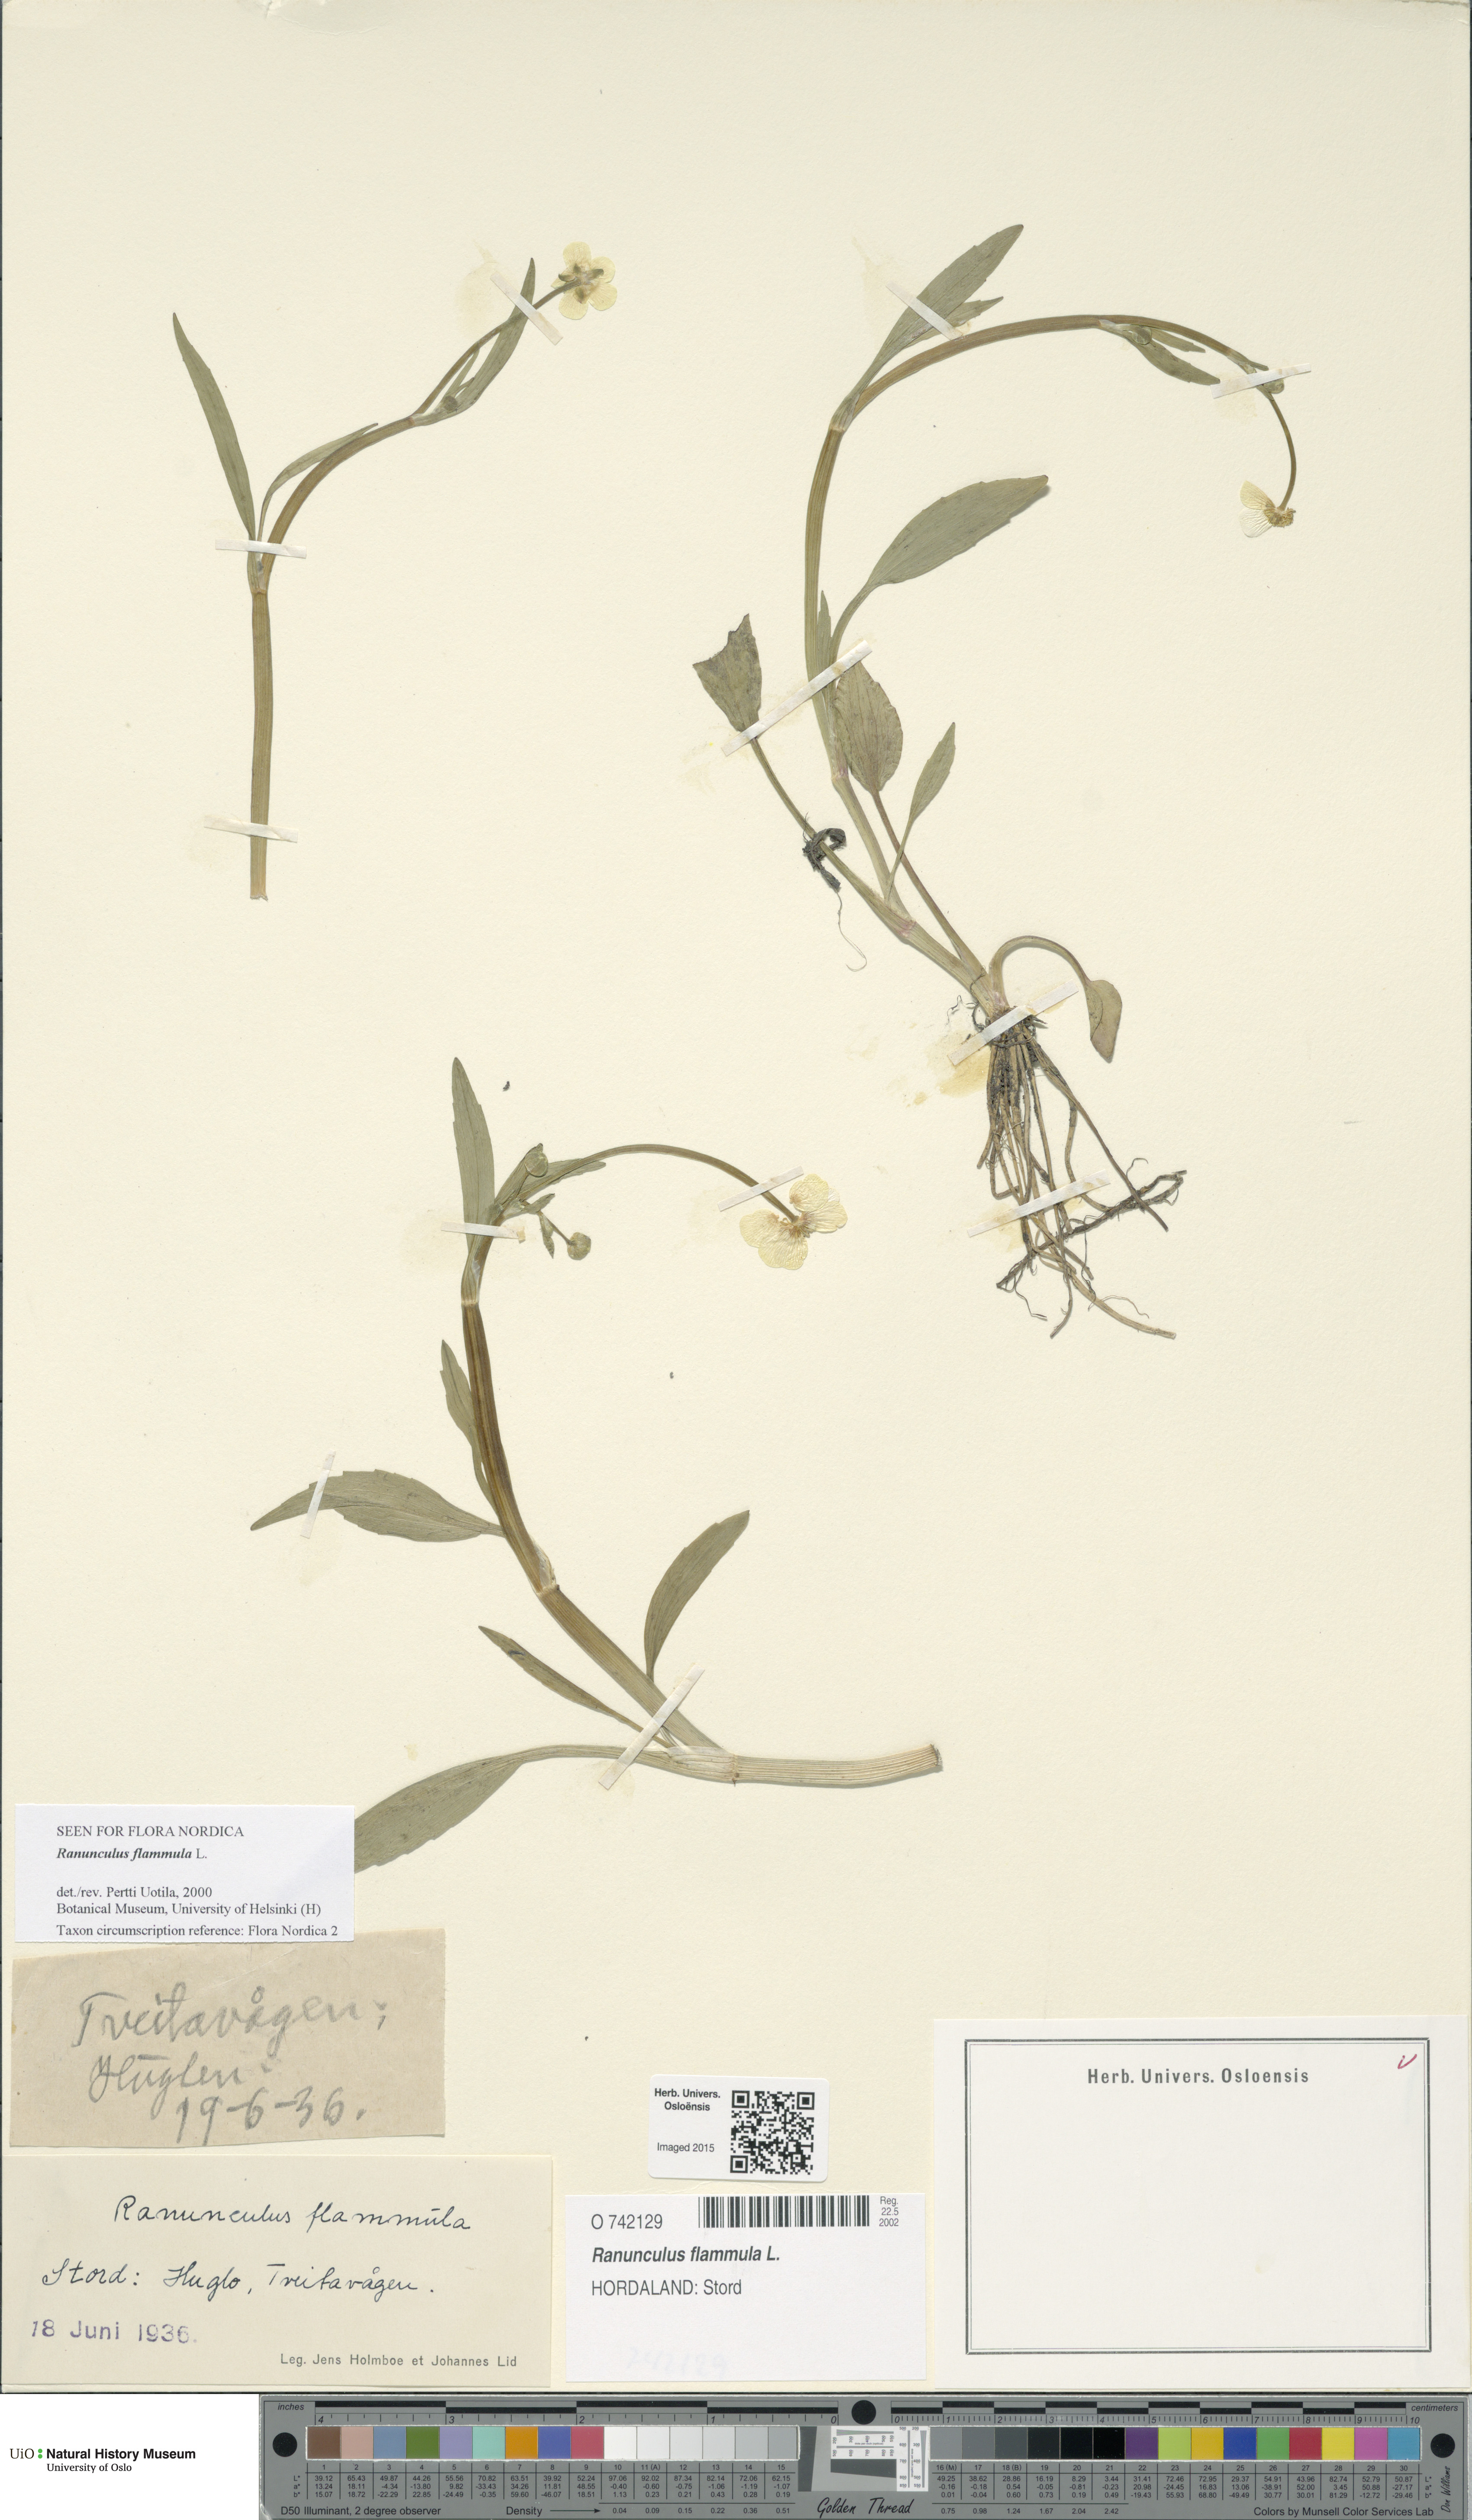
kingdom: Plantae
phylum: Tracheophyta
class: Magnoliopsida
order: Ranunculales
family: Ranunculaceae
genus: Ranunculus
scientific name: Ranunculus flammula
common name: Lesser spearwort
